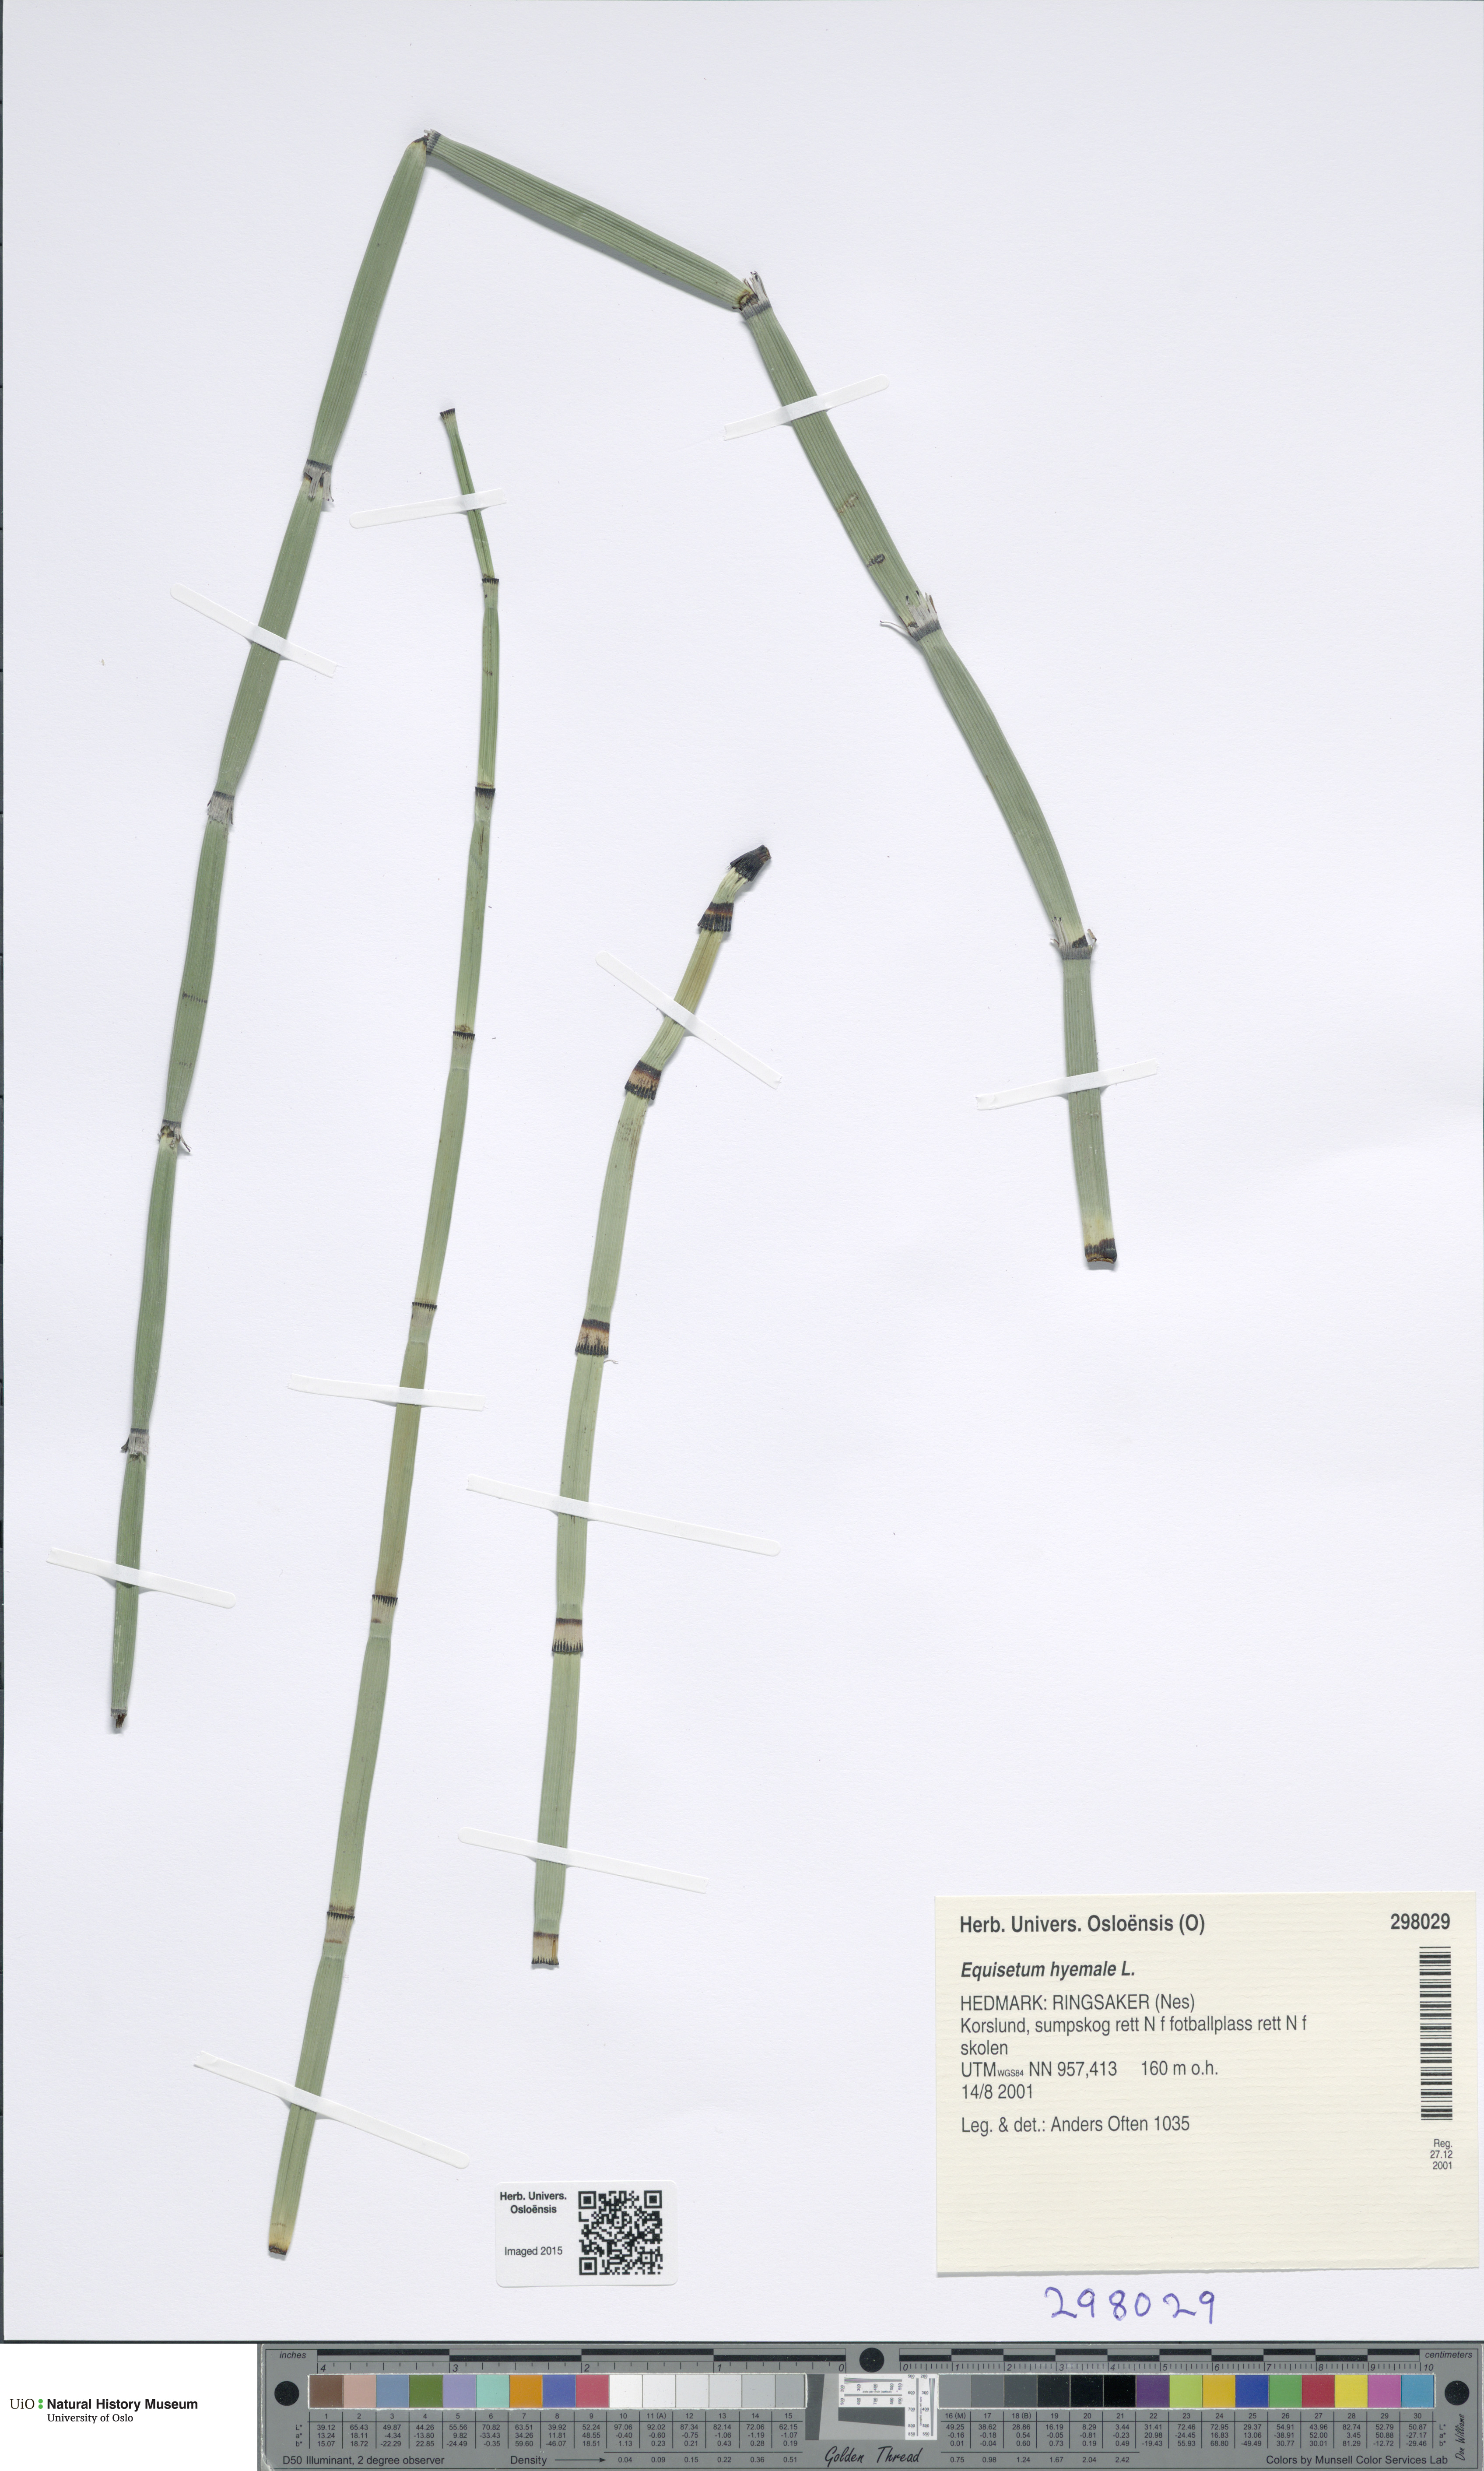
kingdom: Plantae
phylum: Tracheophyta
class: Polypodiopsida
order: Equisetales
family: Equisetaceae
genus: Equisetum
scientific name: Equisetum hyemale
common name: Rough horsetail
